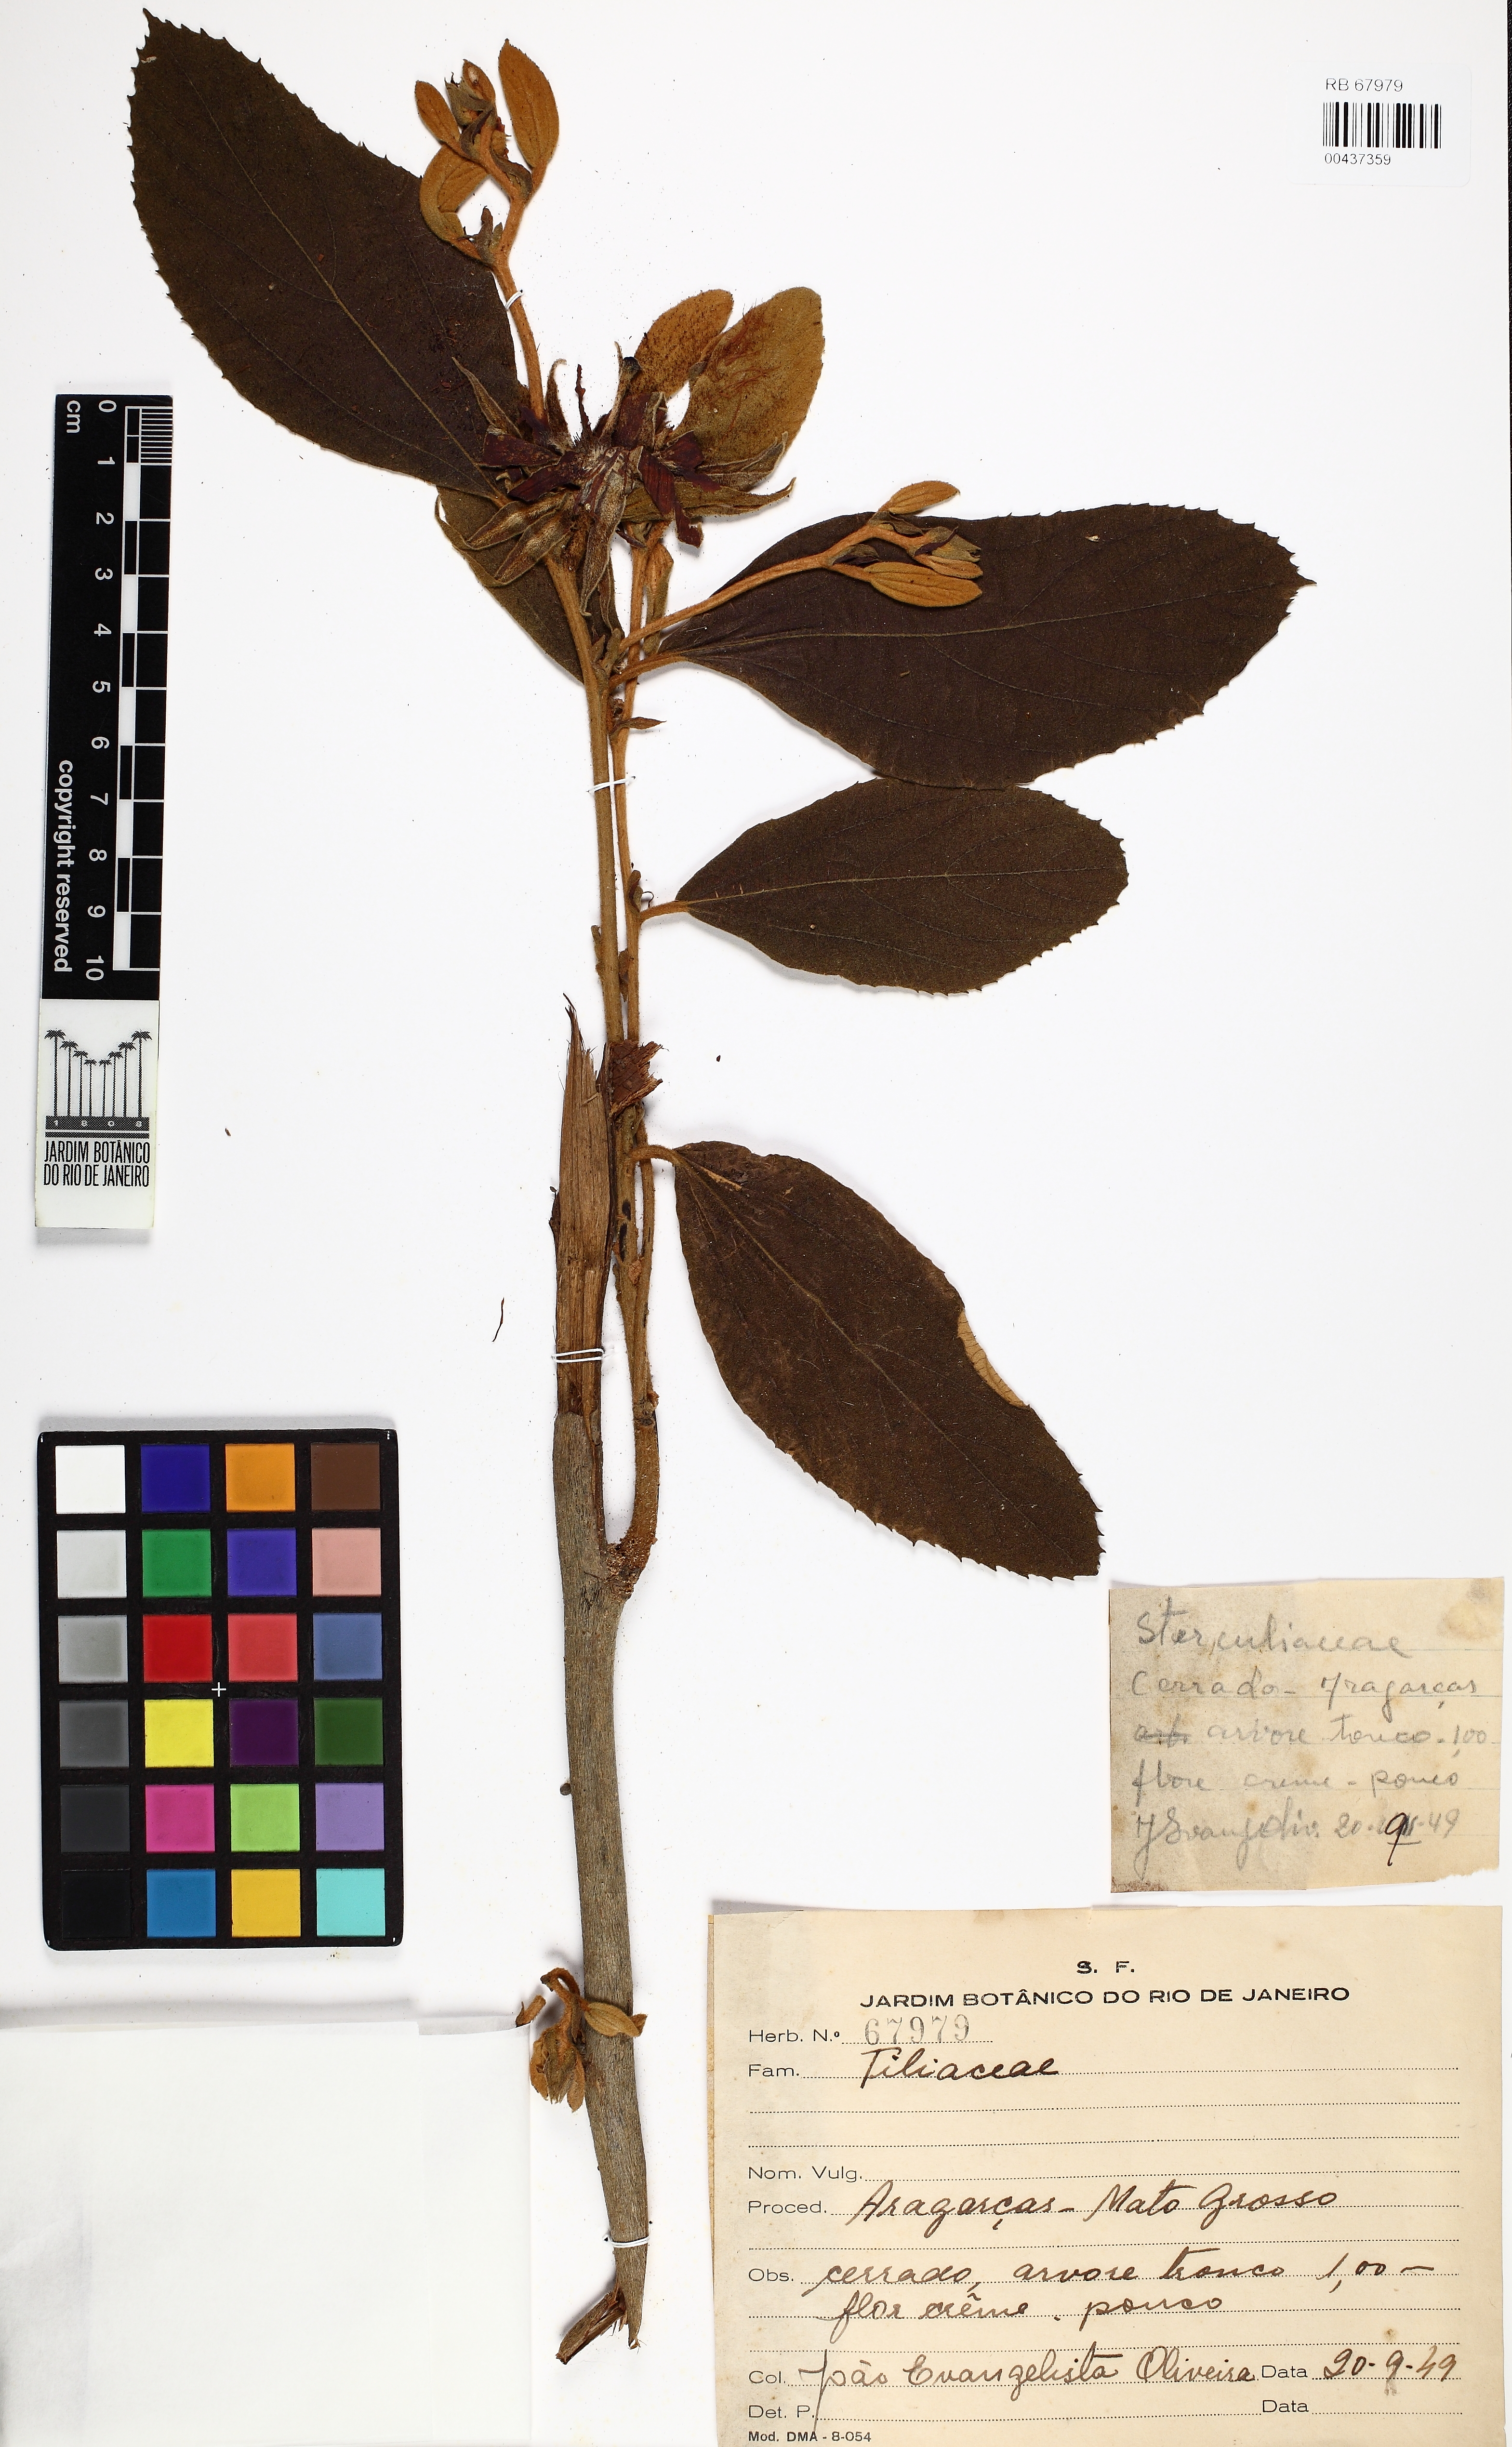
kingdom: Plantae
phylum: Tracheophyta
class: Magnoliopsida
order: Malpighiales
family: Salicaceae
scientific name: Salicaceae
